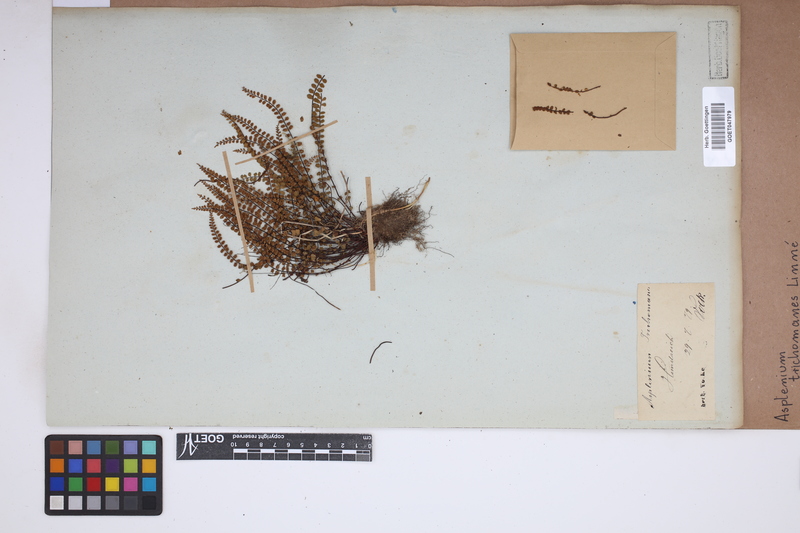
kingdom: Plantae
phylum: Tracheophyta
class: Polypodiopsida
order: Polypodiales
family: Aspleniaceae
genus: Asplenium
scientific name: Asplenium trichomanes
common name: Maidenhair spleenwort
